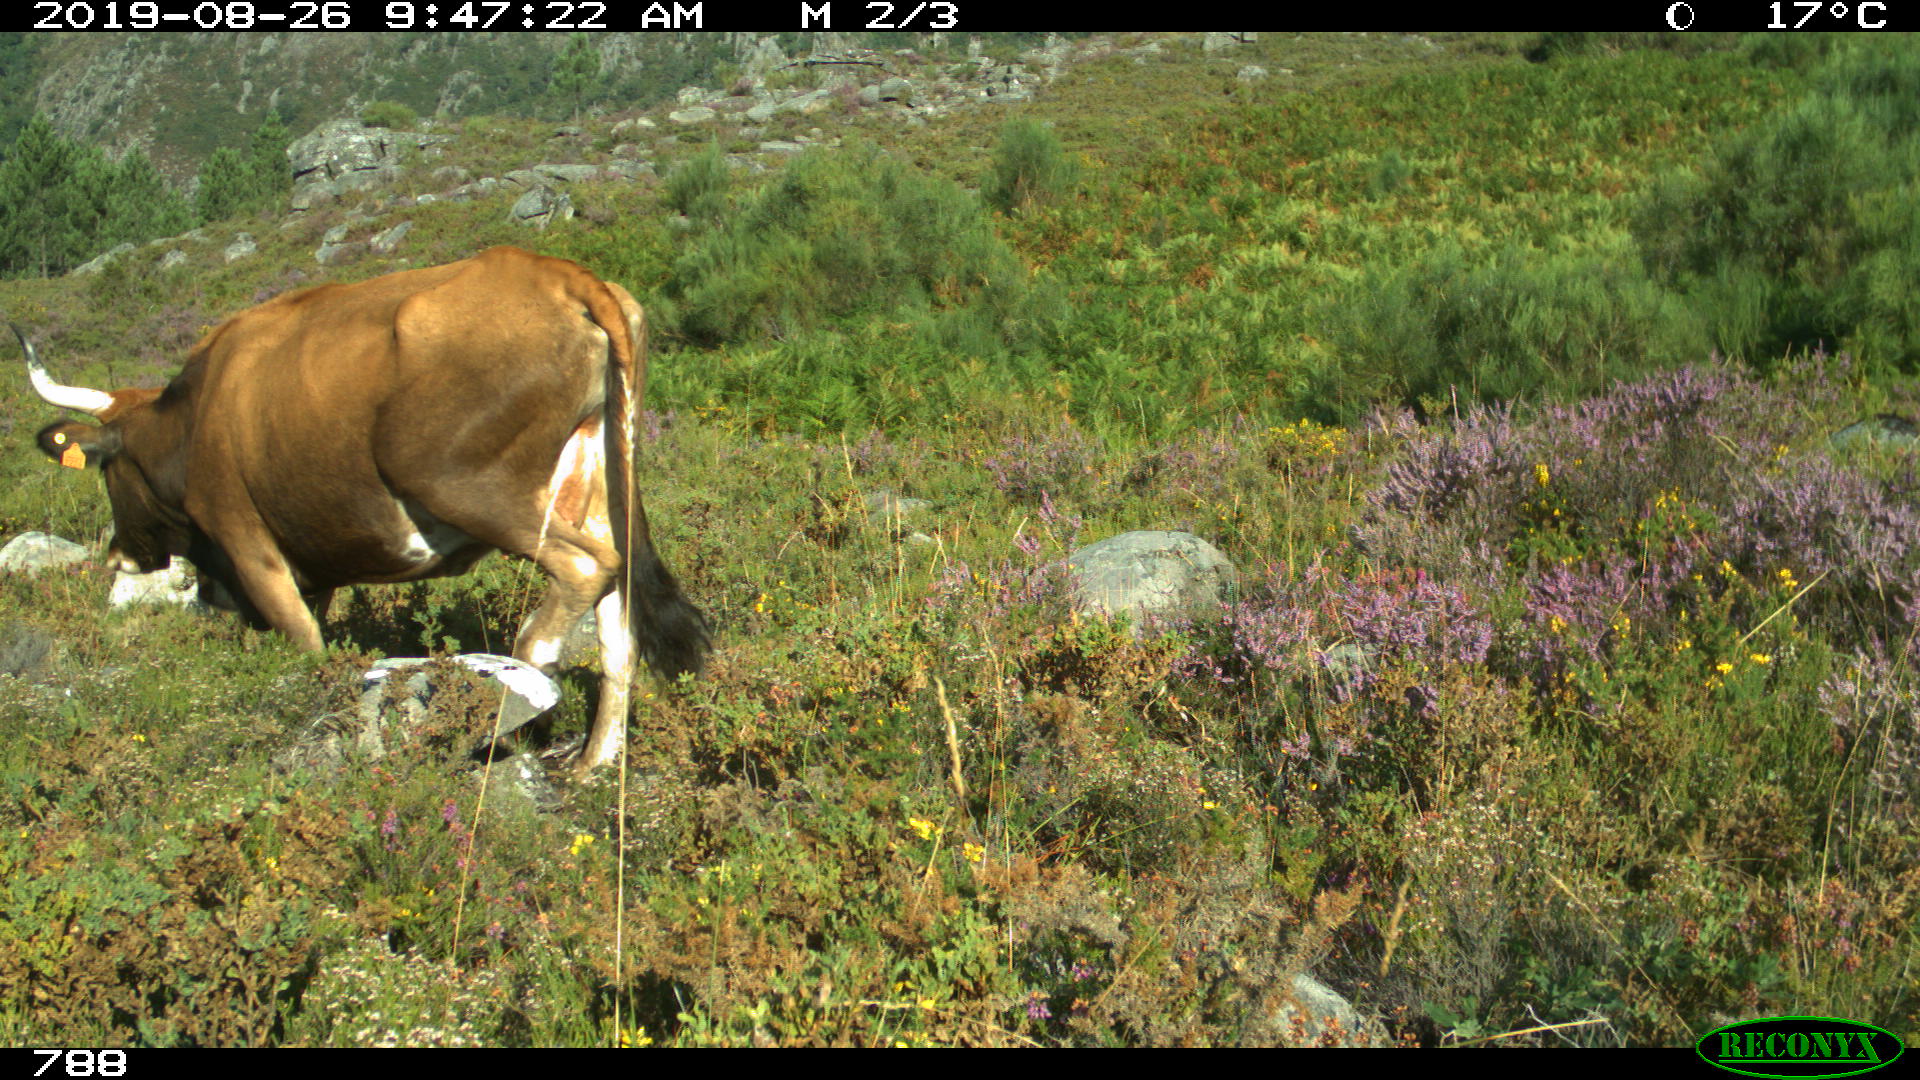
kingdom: Animalia
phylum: Chordata
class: Mammalia
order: Artiodactyla
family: Bovidae
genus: Bos
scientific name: Bos taurus
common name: Domesticated cattle
